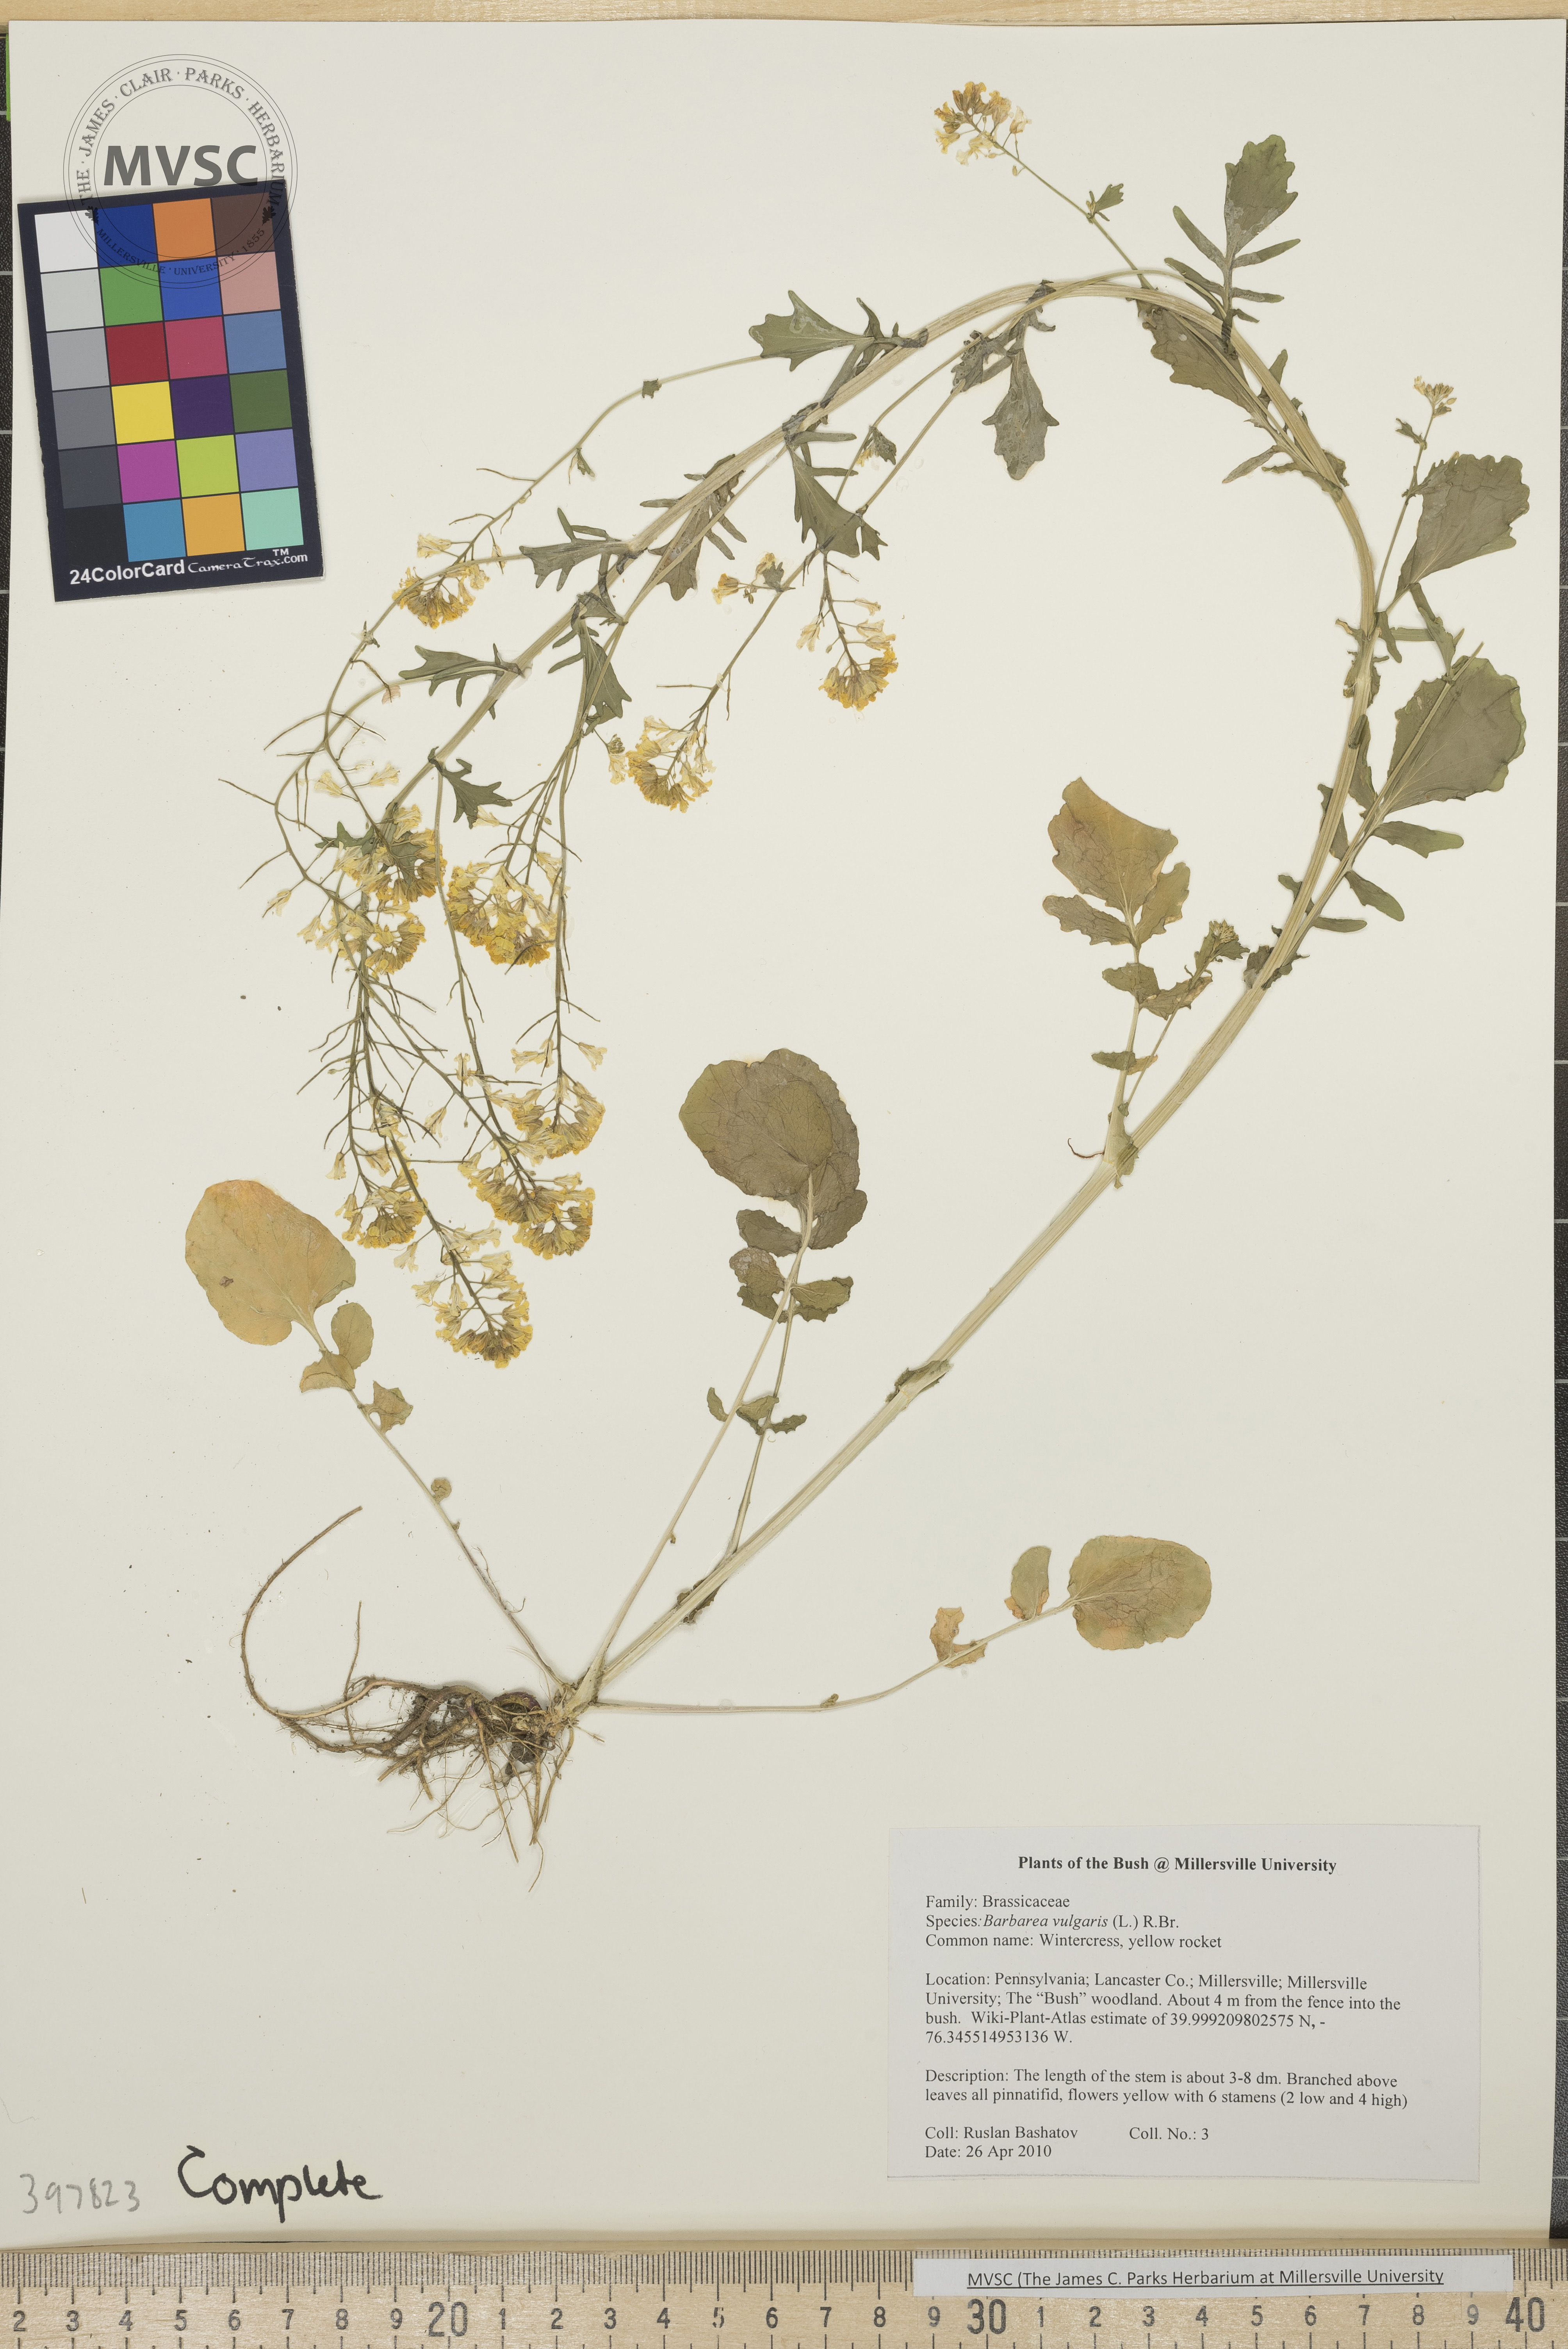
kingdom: Plantae
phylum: Tracheophyta
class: Magnoliopsida
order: Brassicales
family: Brassicaceae
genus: Barbarea
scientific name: Barbarea vulgaris
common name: Wintercress
